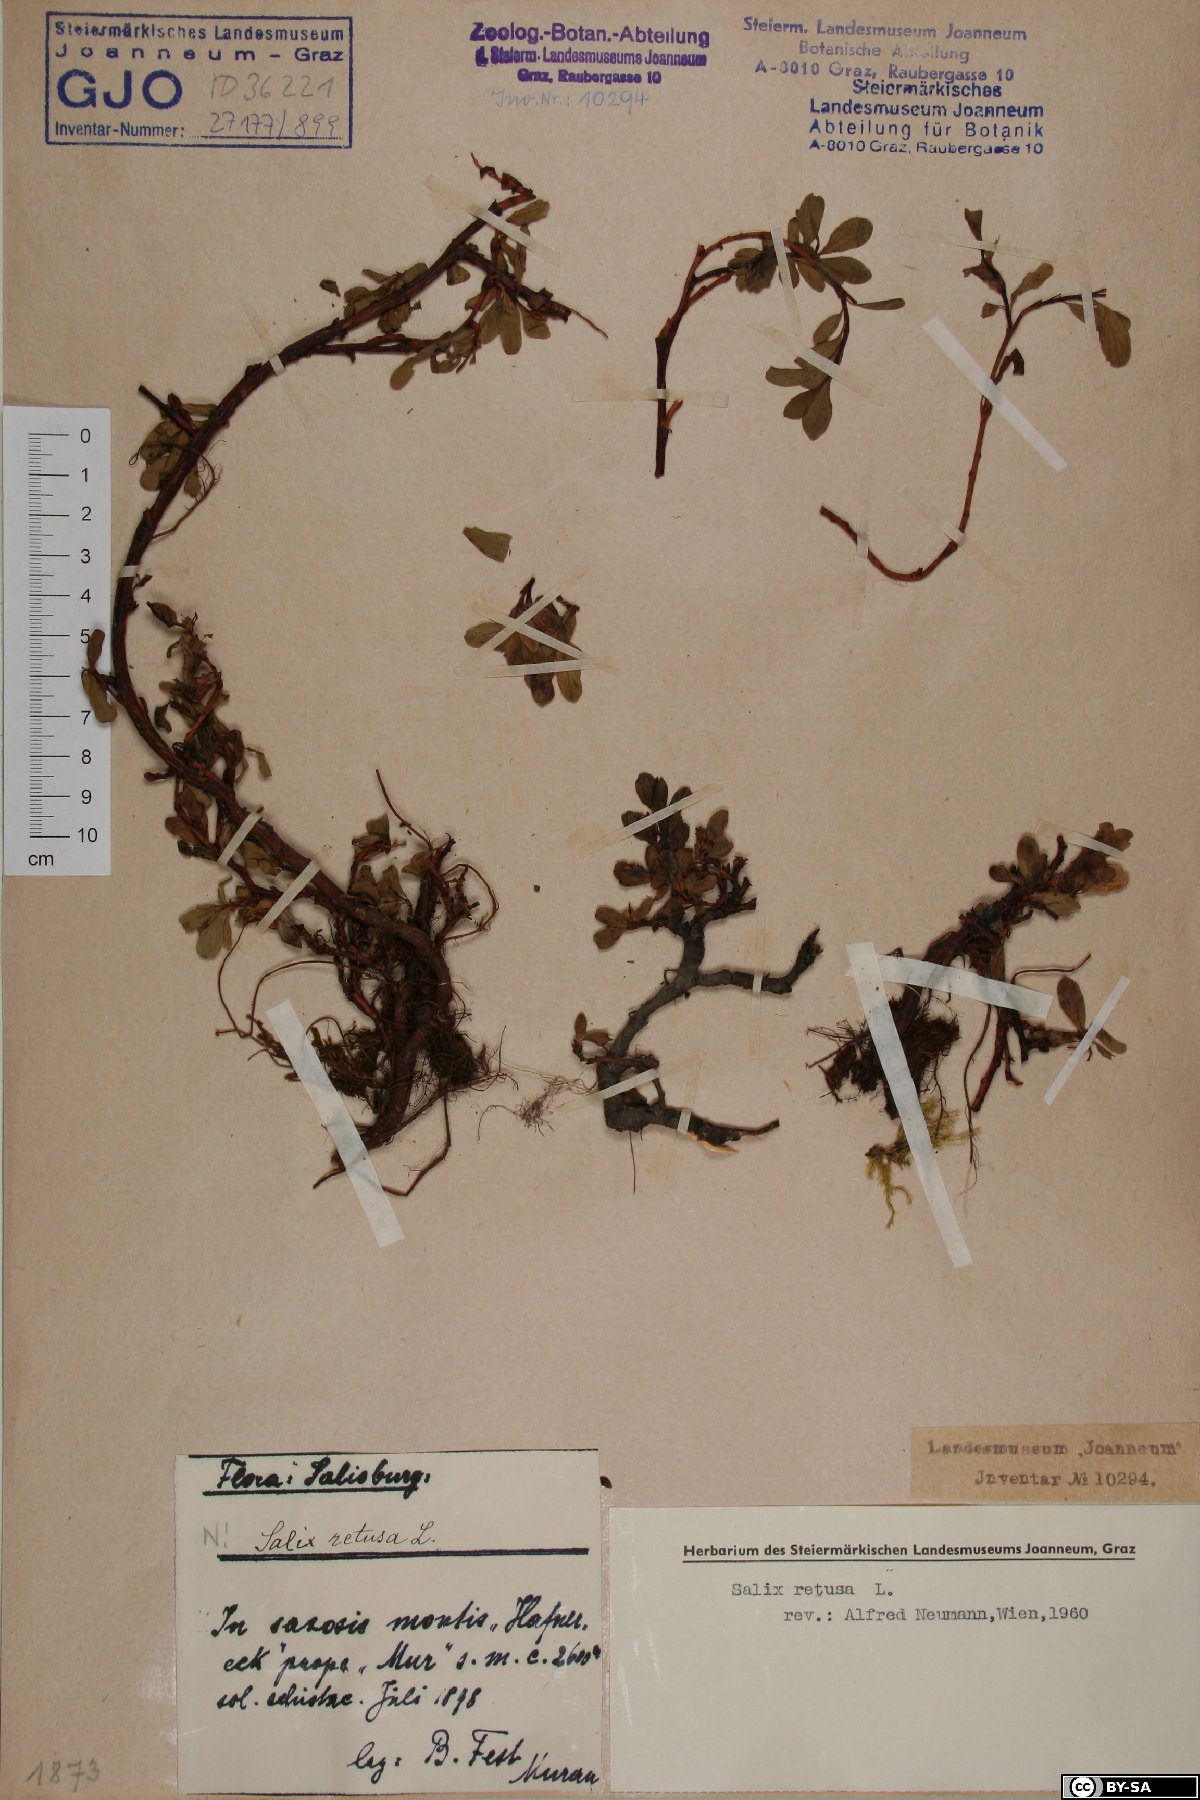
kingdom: Plantae
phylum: Tracheophyta
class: Magnoliopsida
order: Malpighiales
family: Salicaceae
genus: Salix
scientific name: Salix retusa
